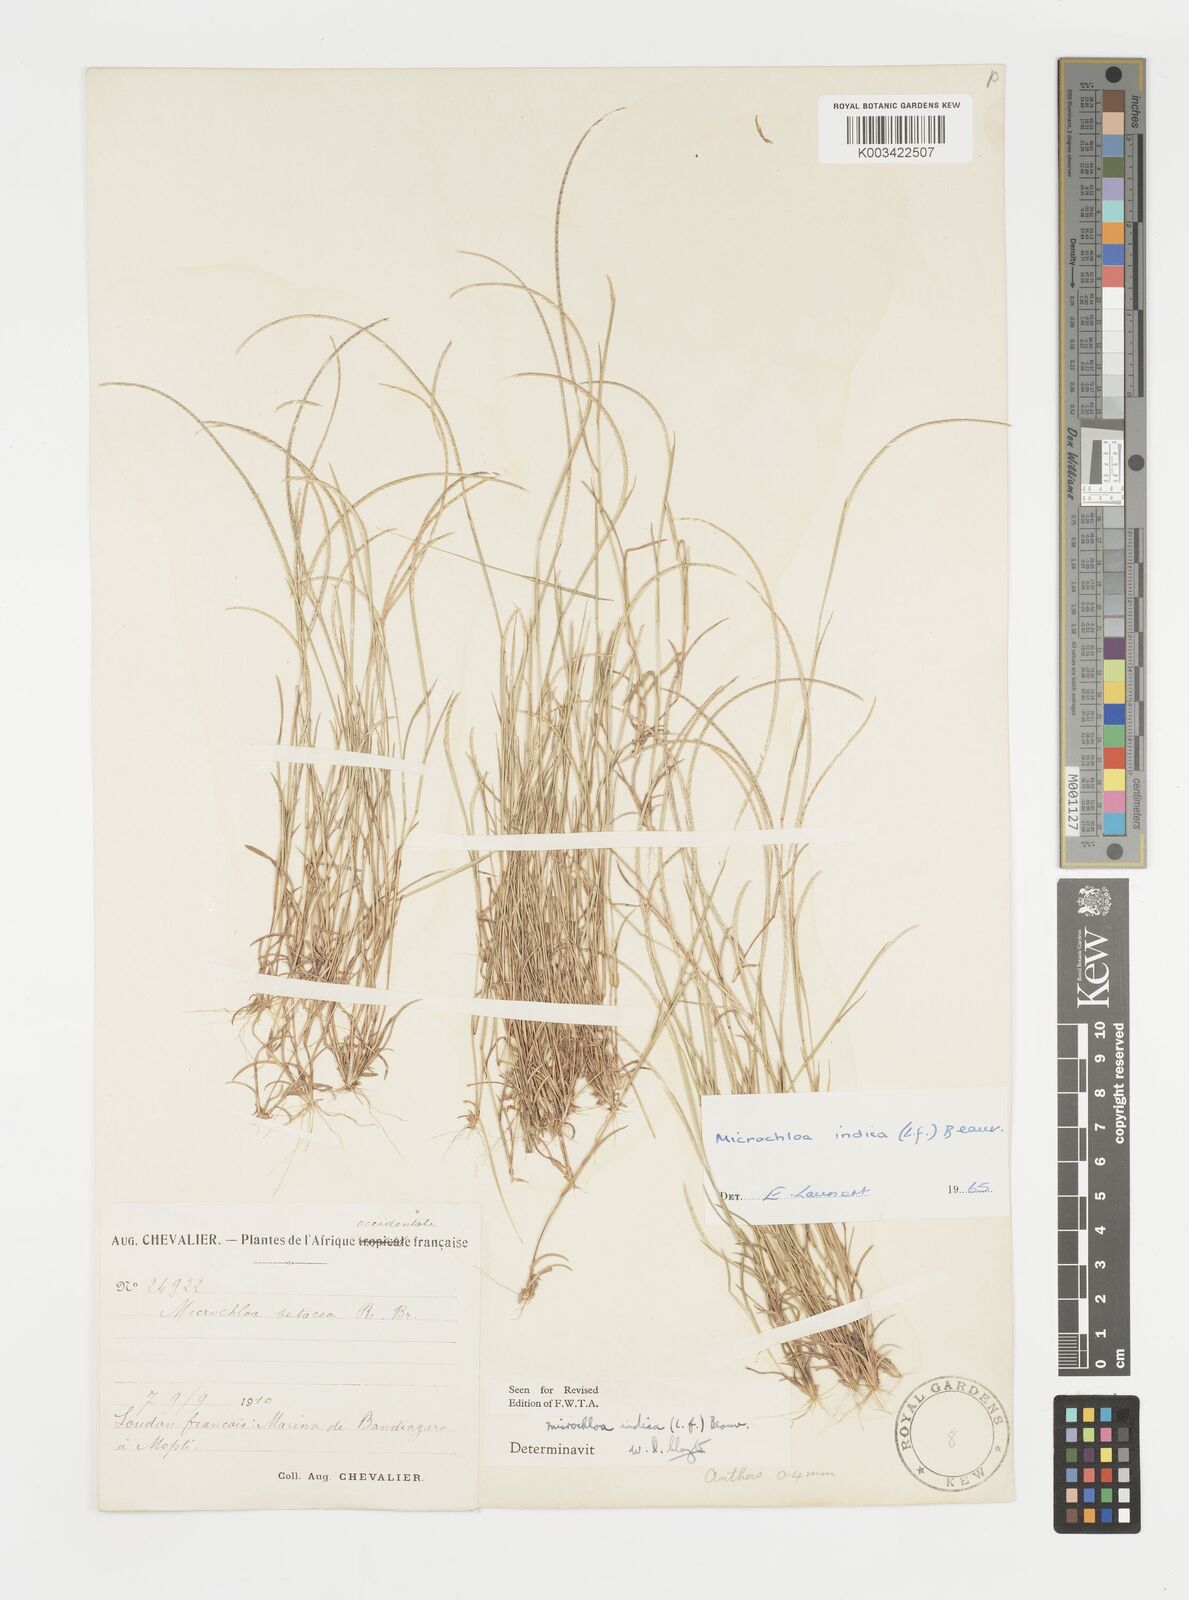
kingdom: Plantae
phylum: Tracheophyta
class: Liliopsida
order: Poales
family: Poaceae
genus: Microchloa
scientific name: Microchloa indica
